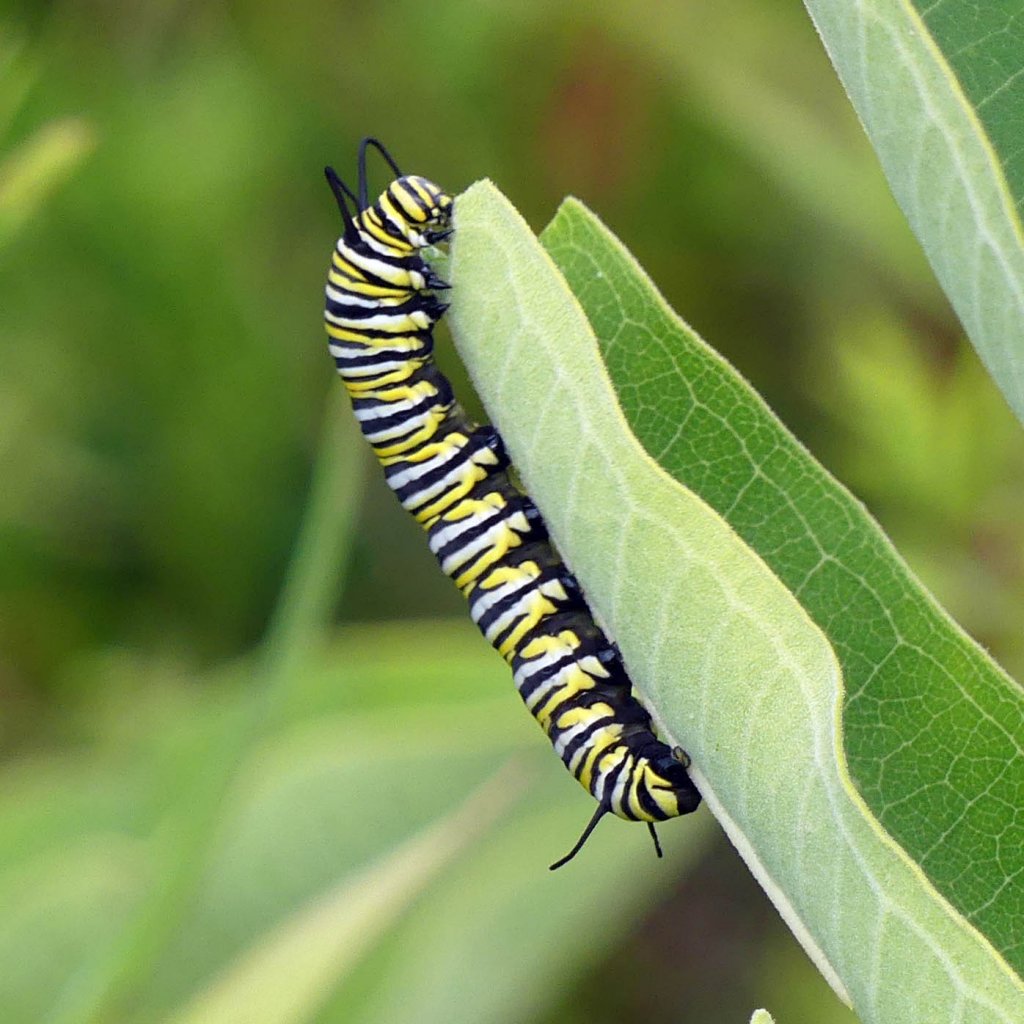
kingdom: Animalia
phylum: Arthropoda
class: Insecta
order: Lepidoptera
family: Nymphalidae
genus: Danaus
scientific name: Danaus plexippus
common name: Monarch
